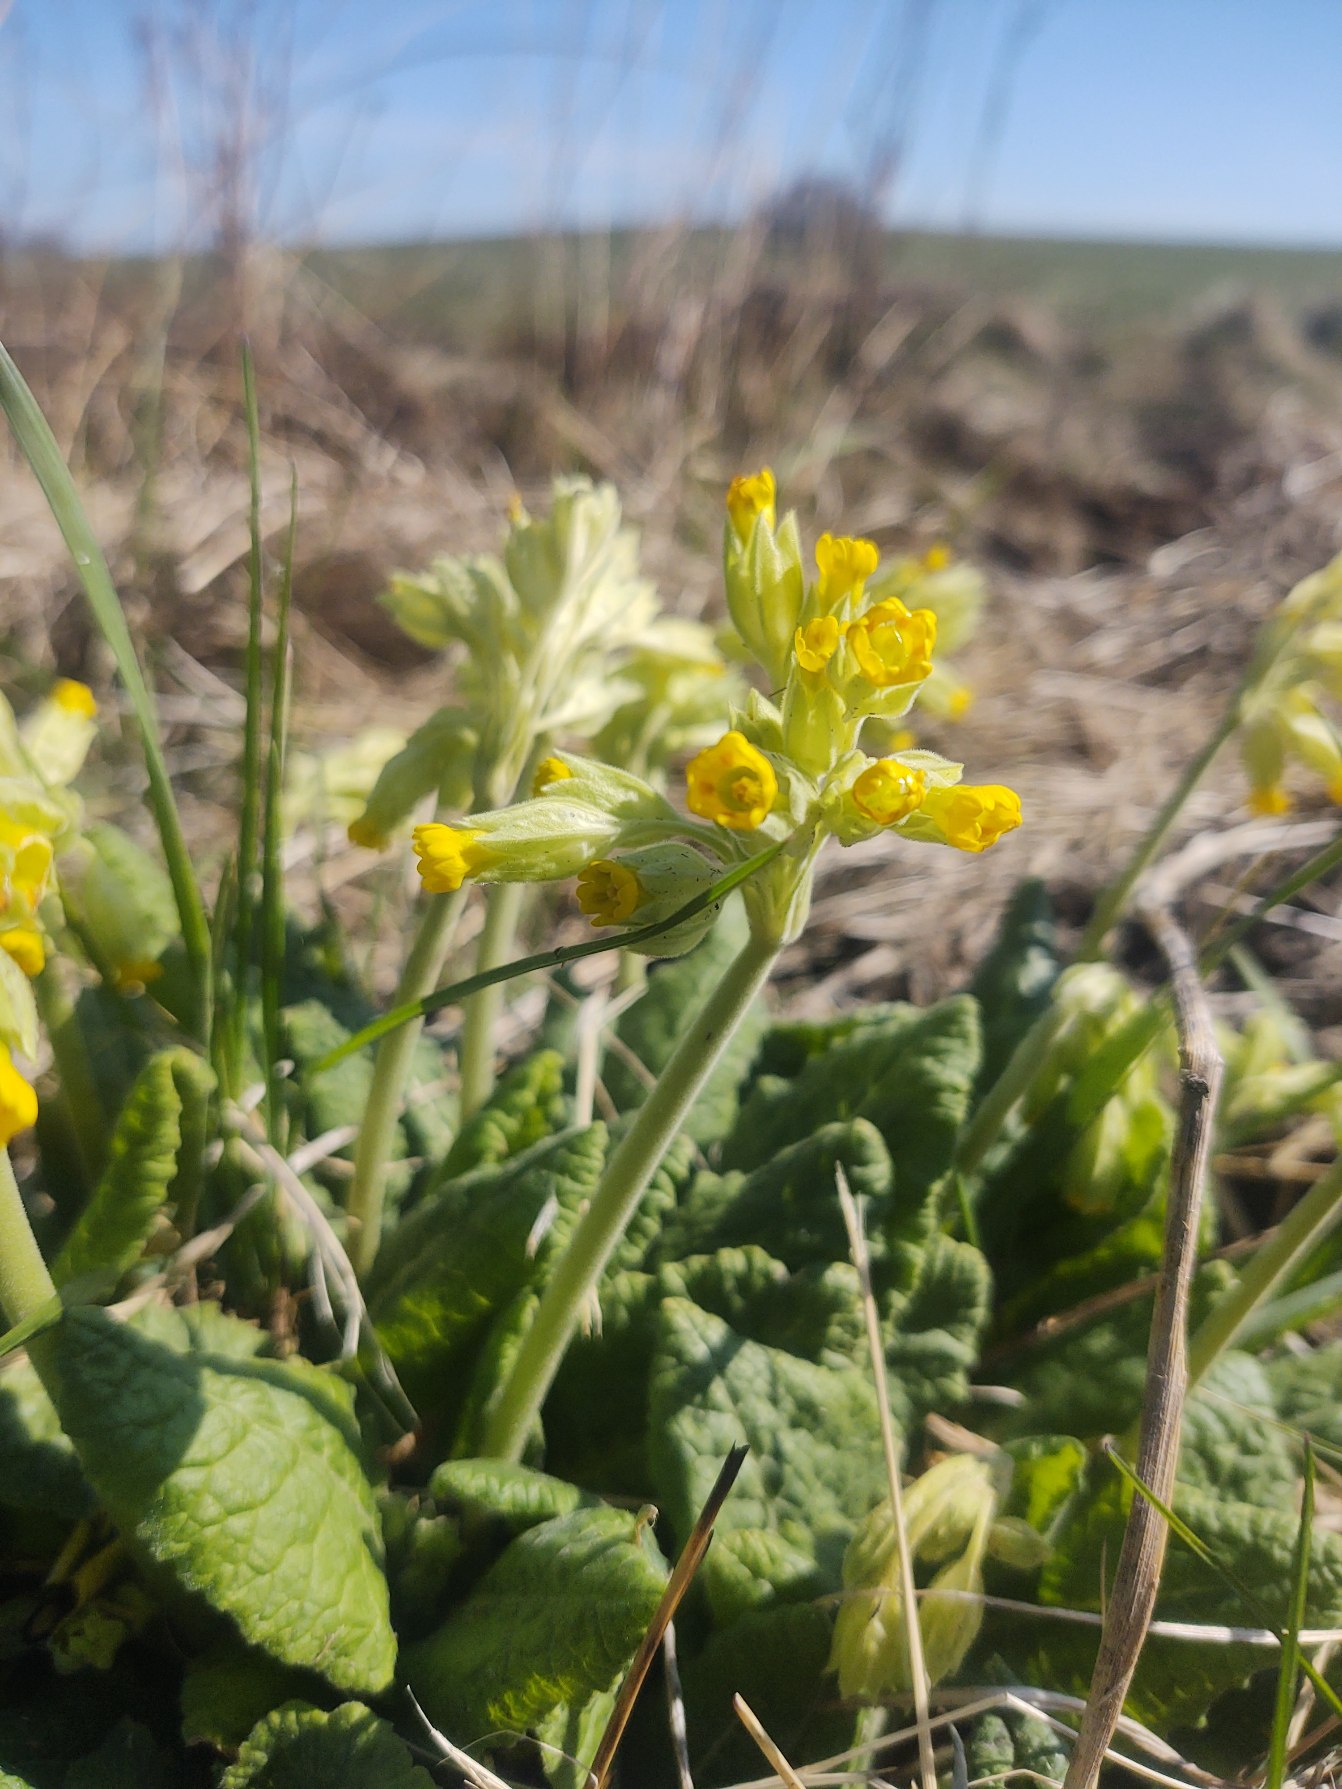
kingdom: Plantae
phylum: Tracheophyta
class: Magnoliopsida
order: Ericales
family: Primulaceae
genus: Primula
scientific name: Primula veris
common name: Hulkravet kodriver
